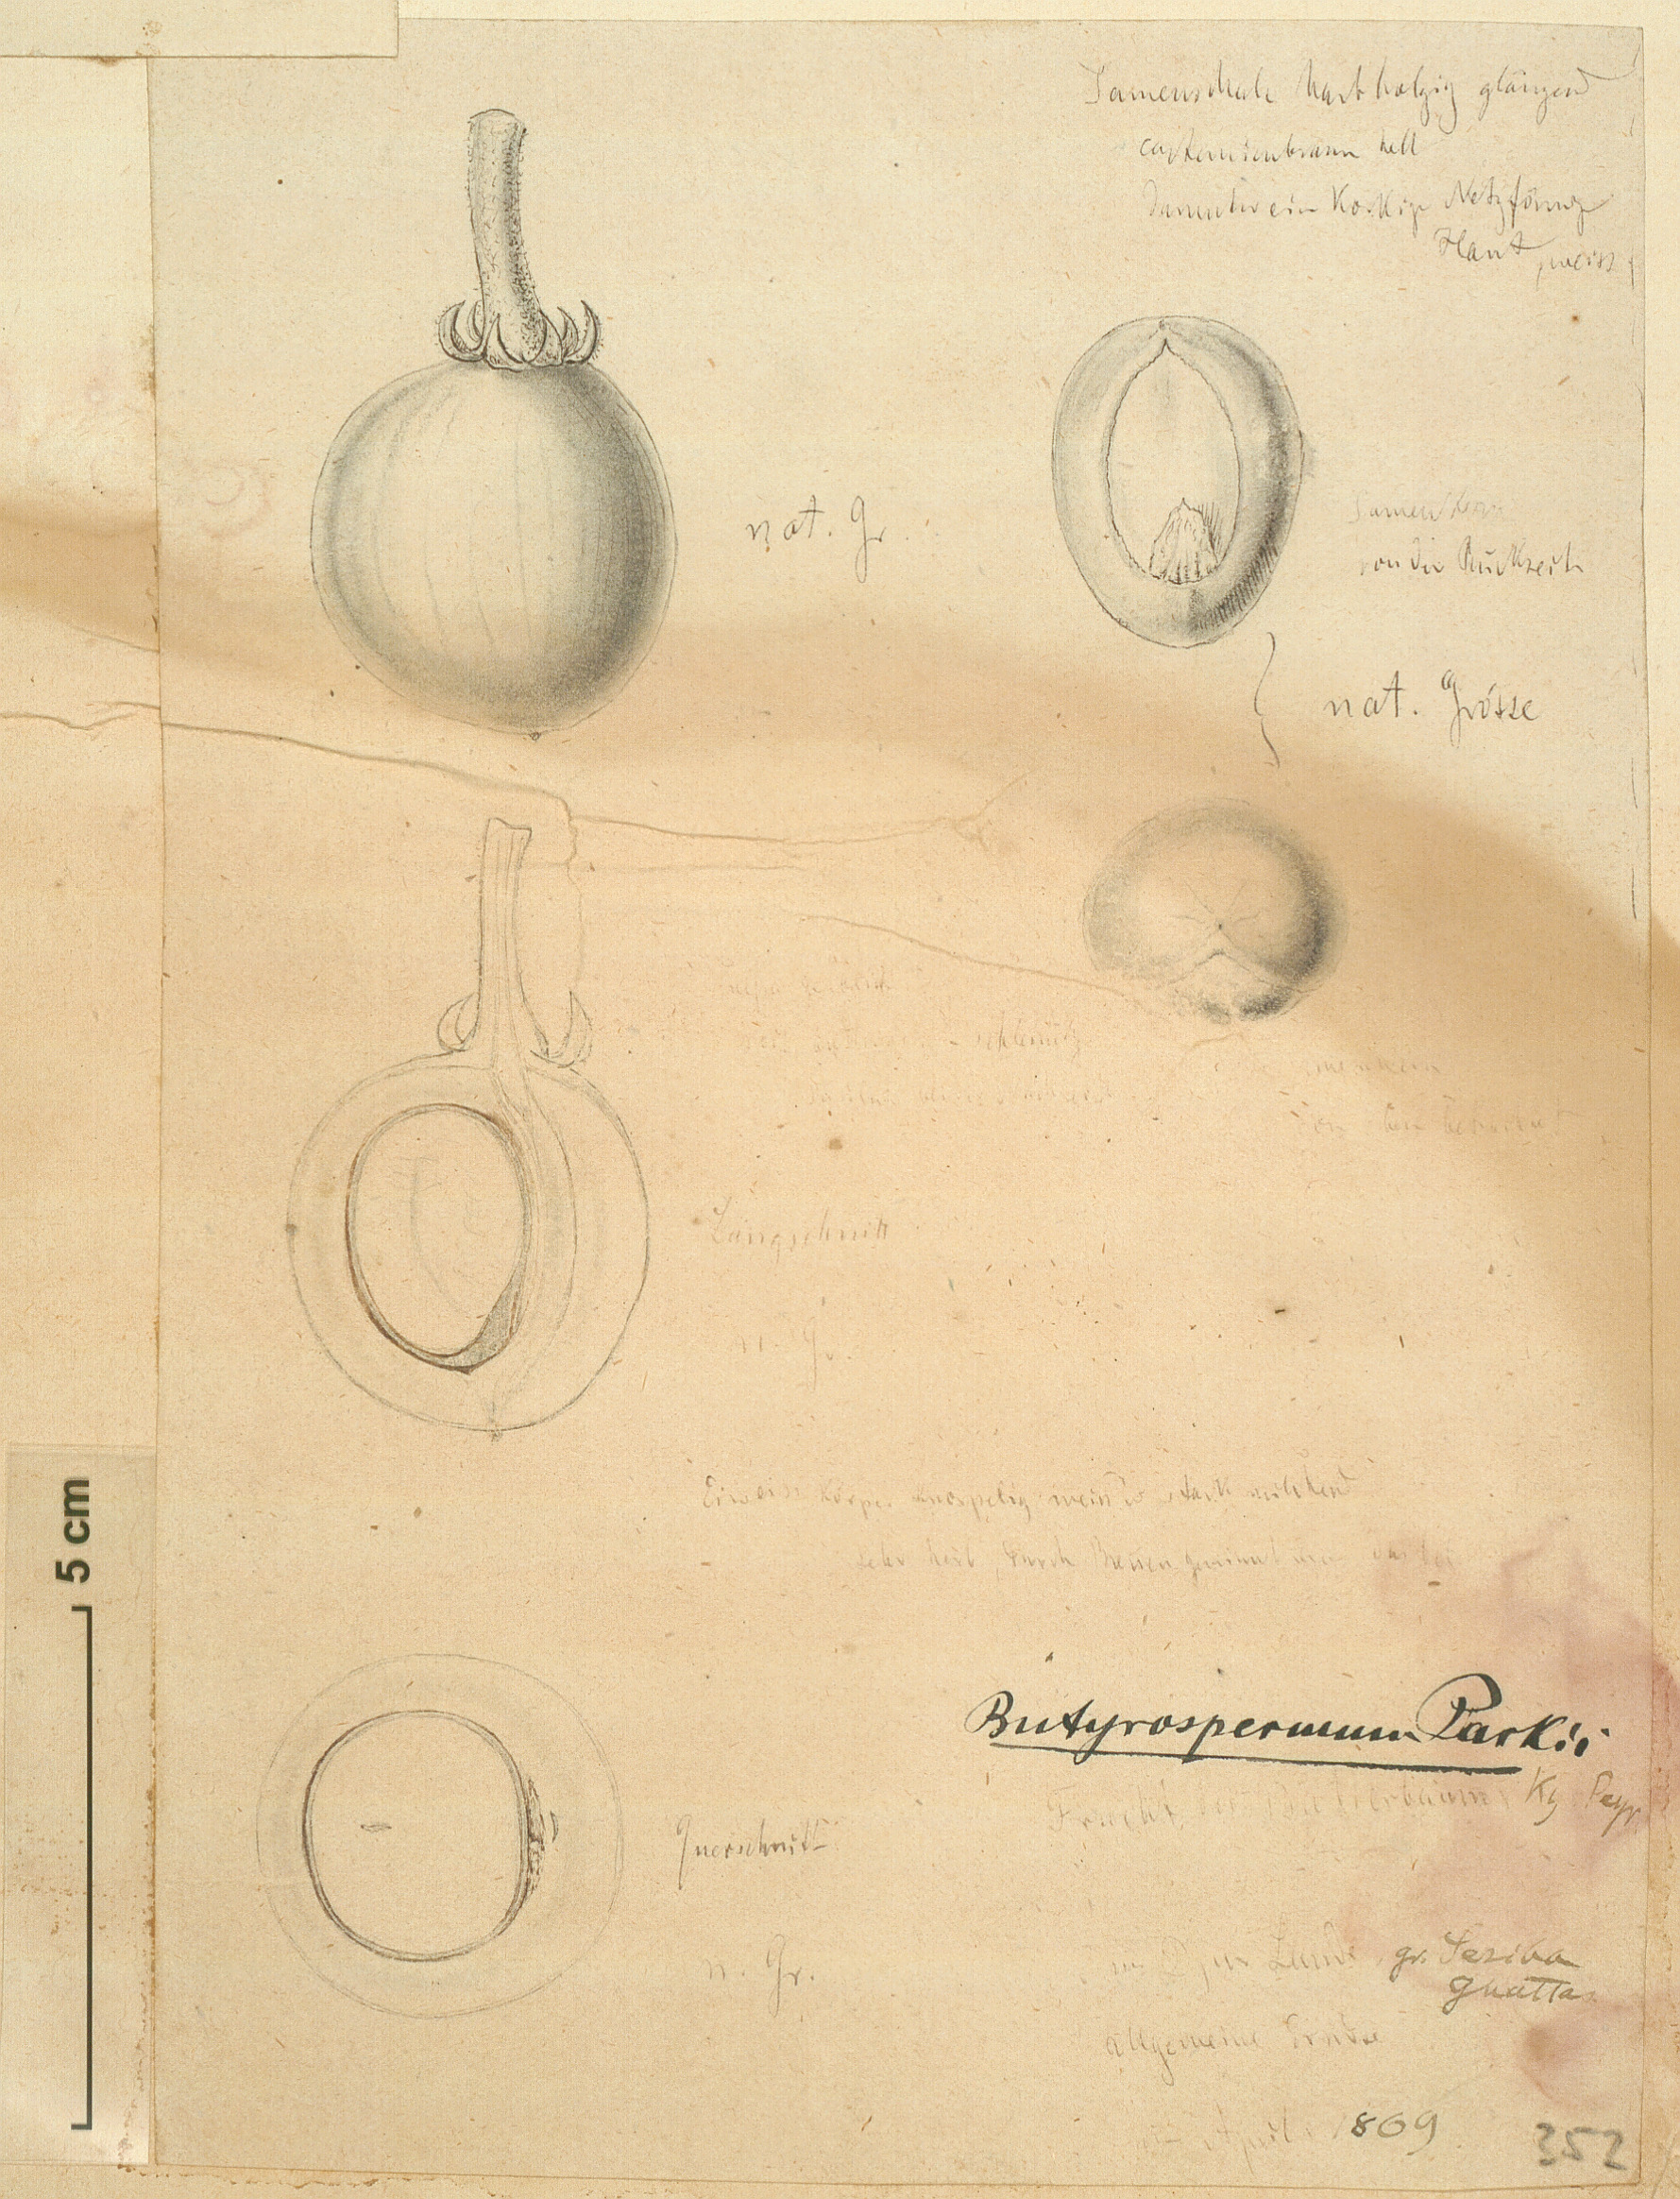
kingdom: Plantae
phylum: Tracheophyta
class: Magnoliopsida
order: Ericales
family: Sapotaceae
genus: Vitellaria
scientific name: Vitellaria paradoxa
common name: Shea butter tree
